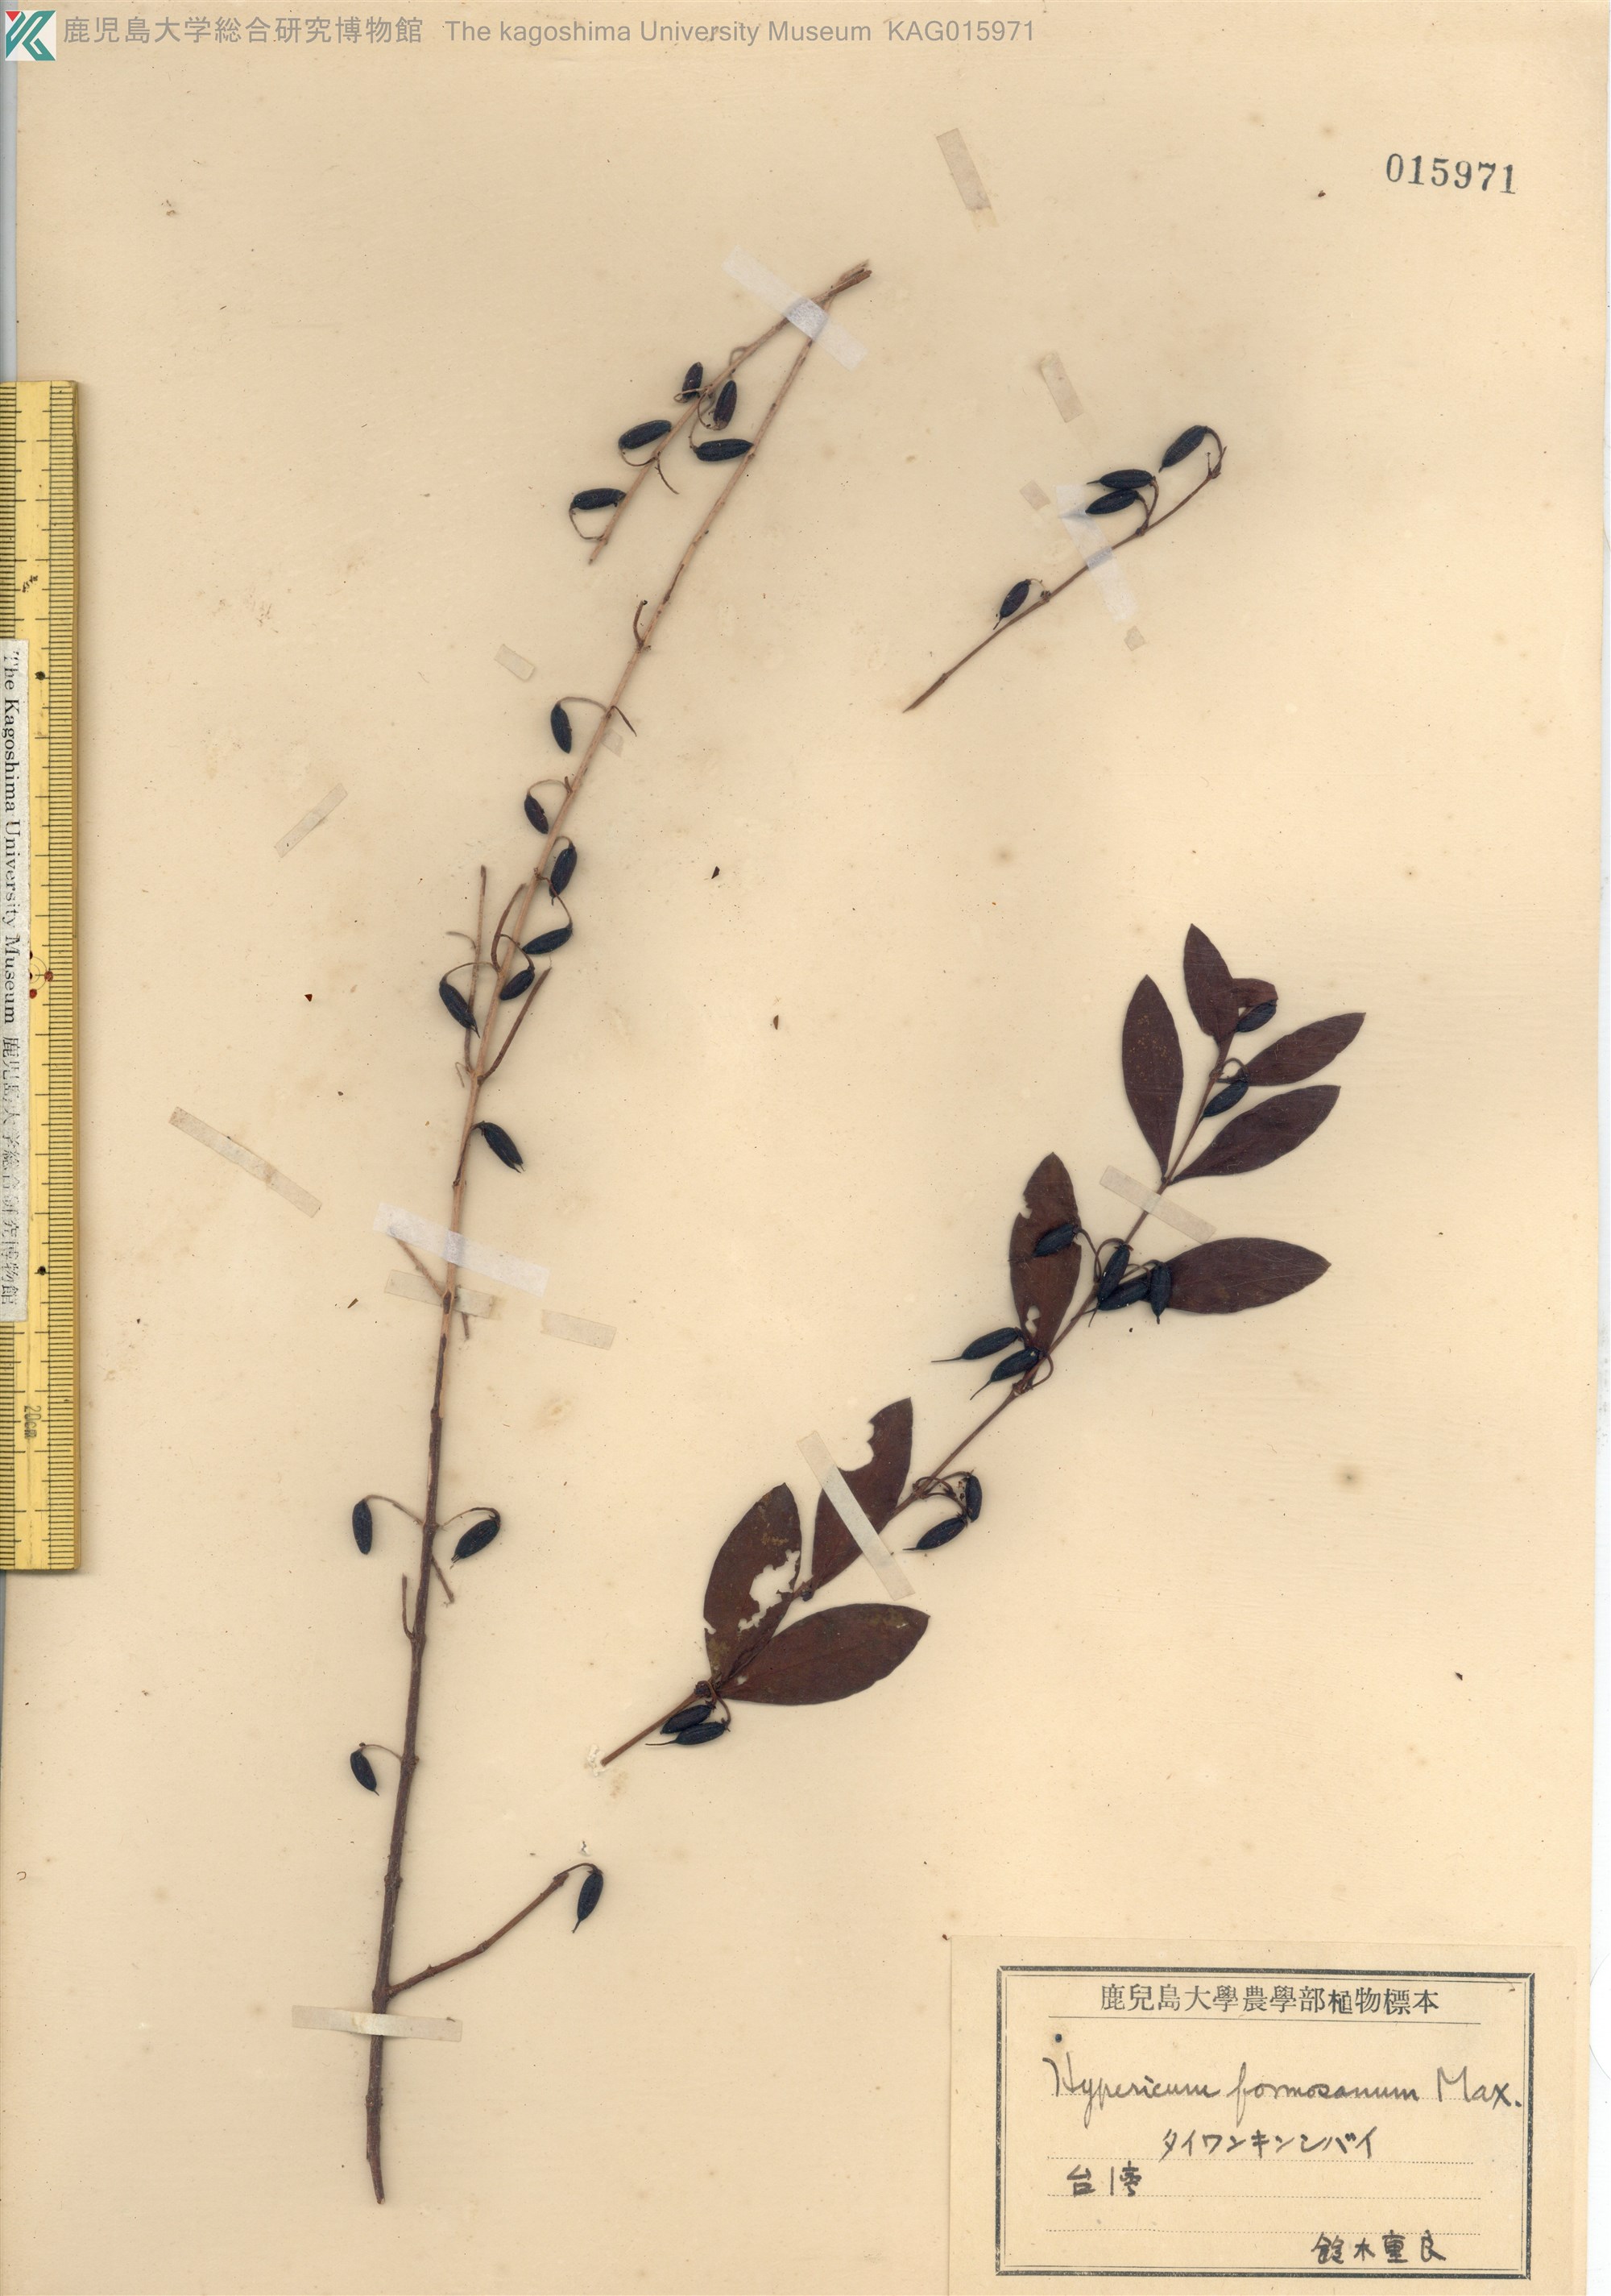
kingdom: Plantae
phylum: Tracheophyta
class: Magnoliopsida
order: Malpighiales
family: Hypericaceae
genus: Hypericum
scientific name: Hypericum geminiflorum
